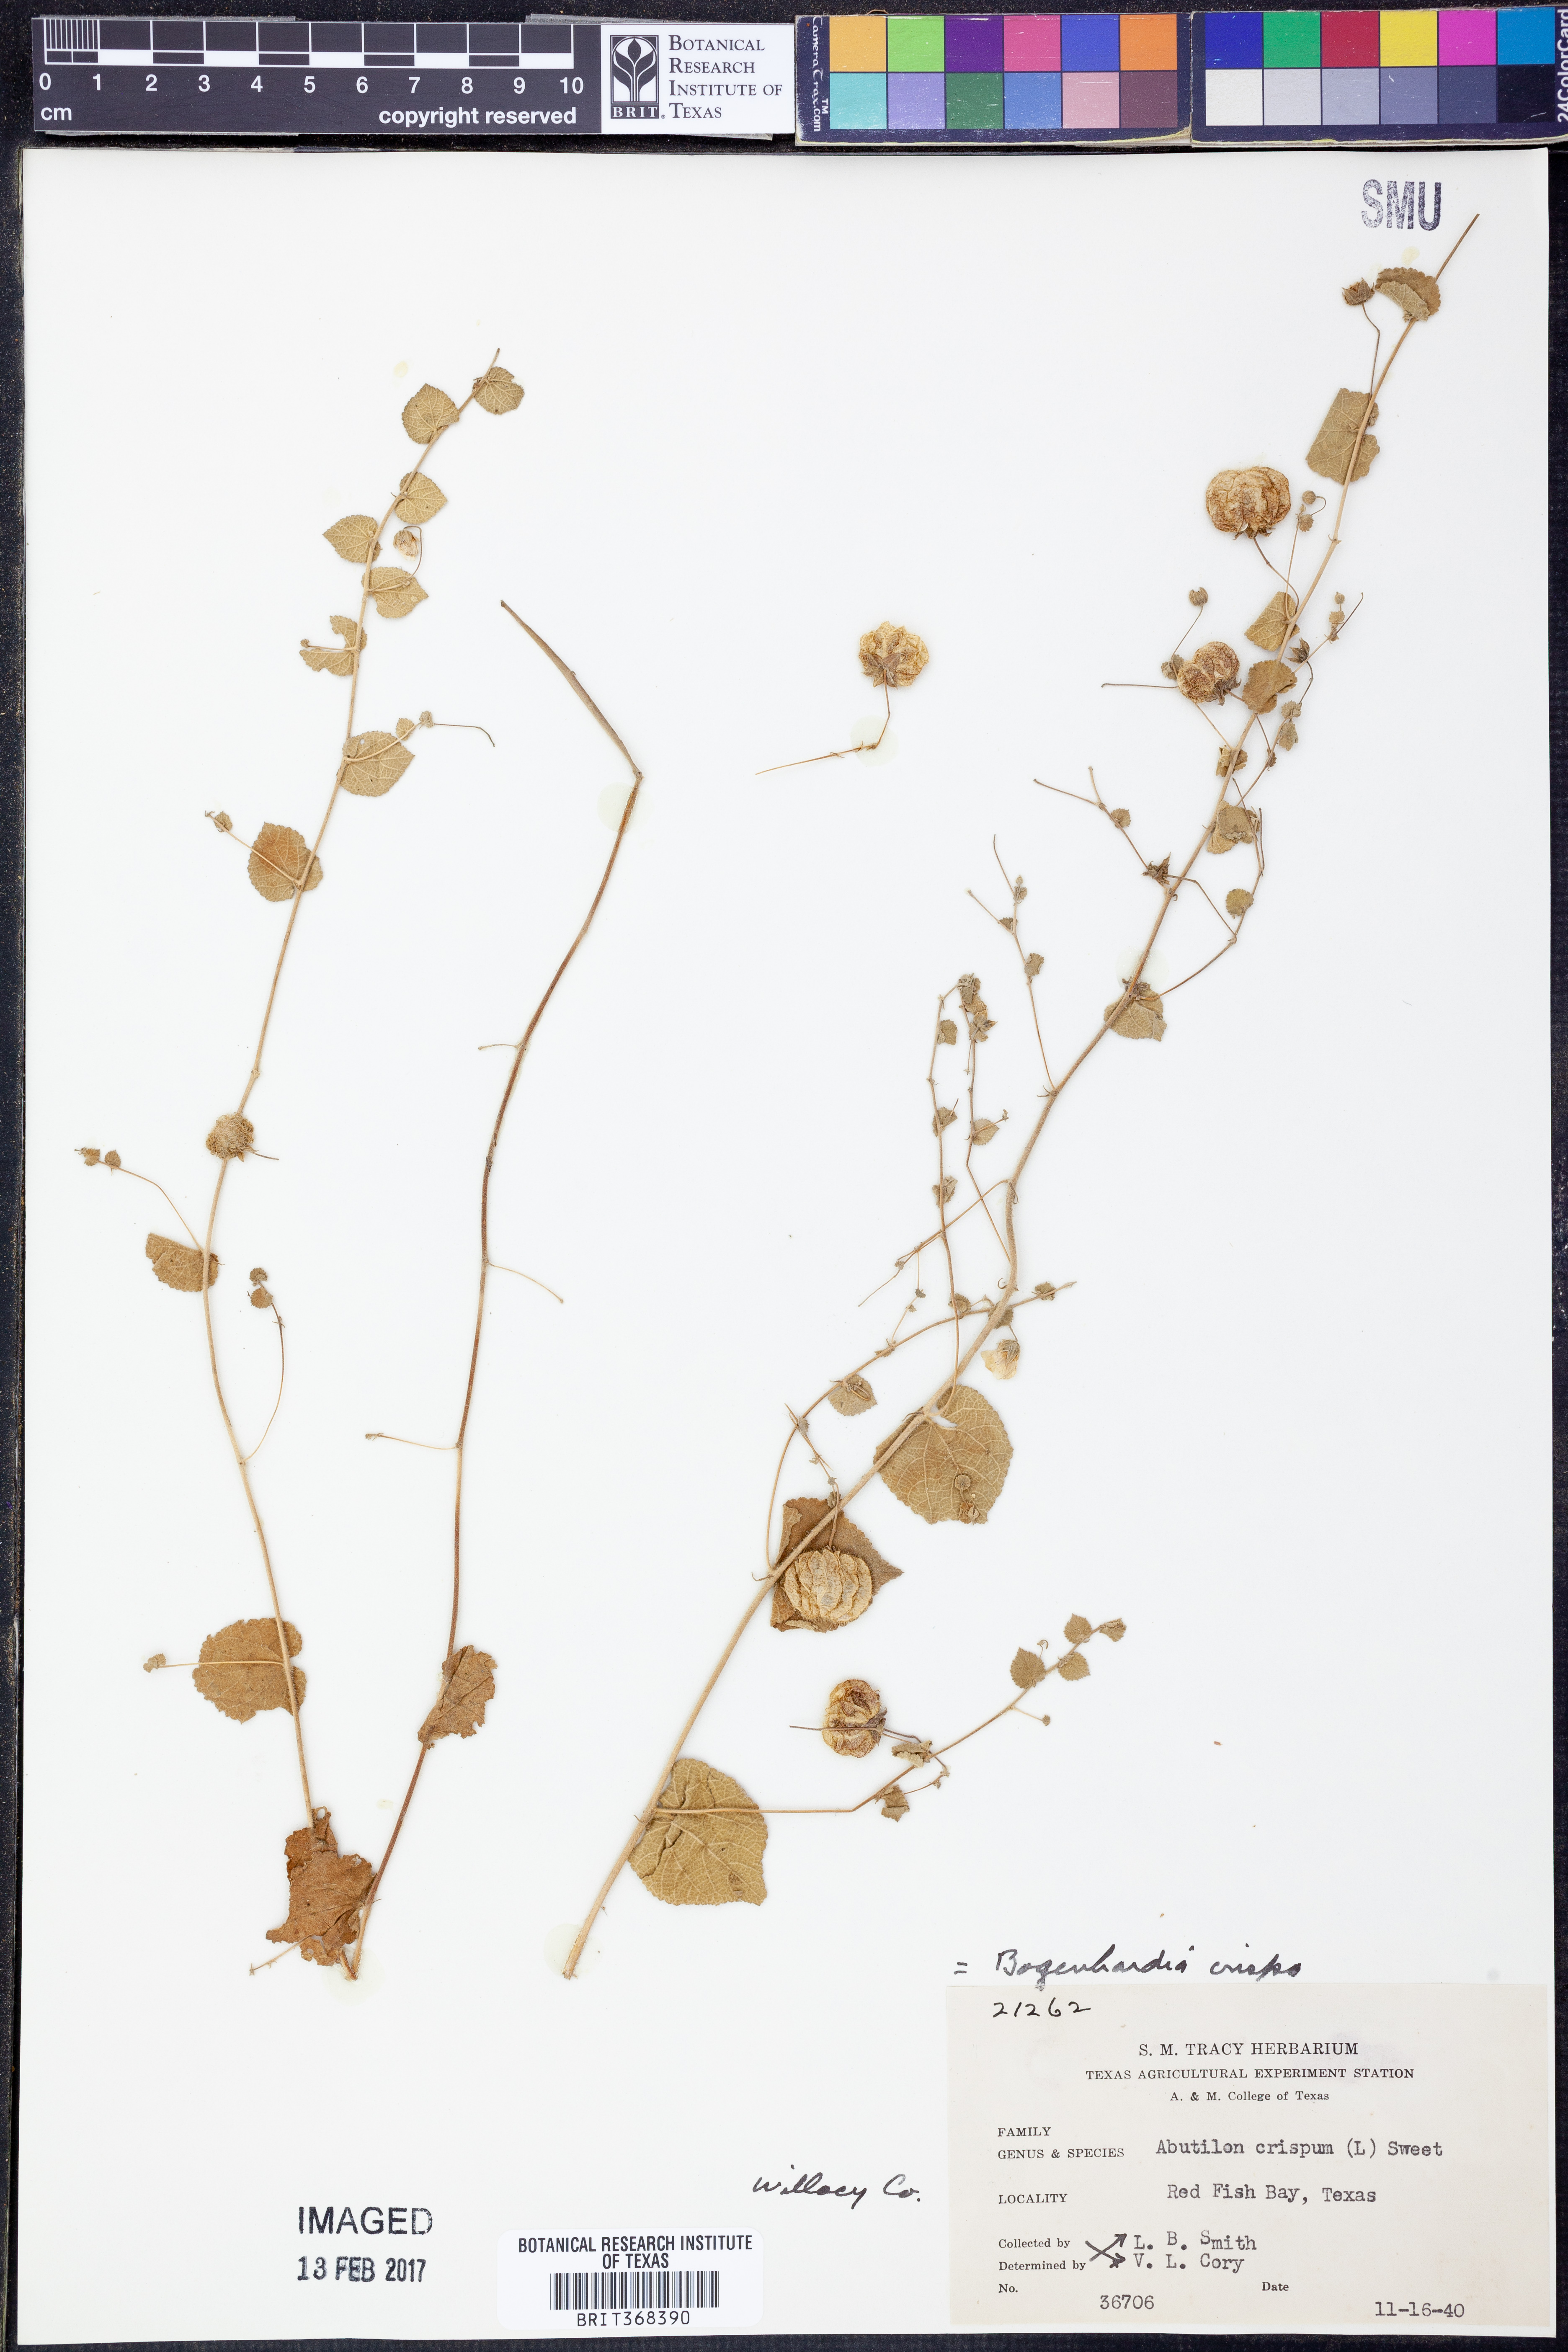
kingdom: Plantae
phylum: Tracheophyta
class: Magnoliopsida
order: Malvales
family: Malvaceae
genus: Herissantia
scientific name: Herissantia crispa
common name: Bladdermallow
